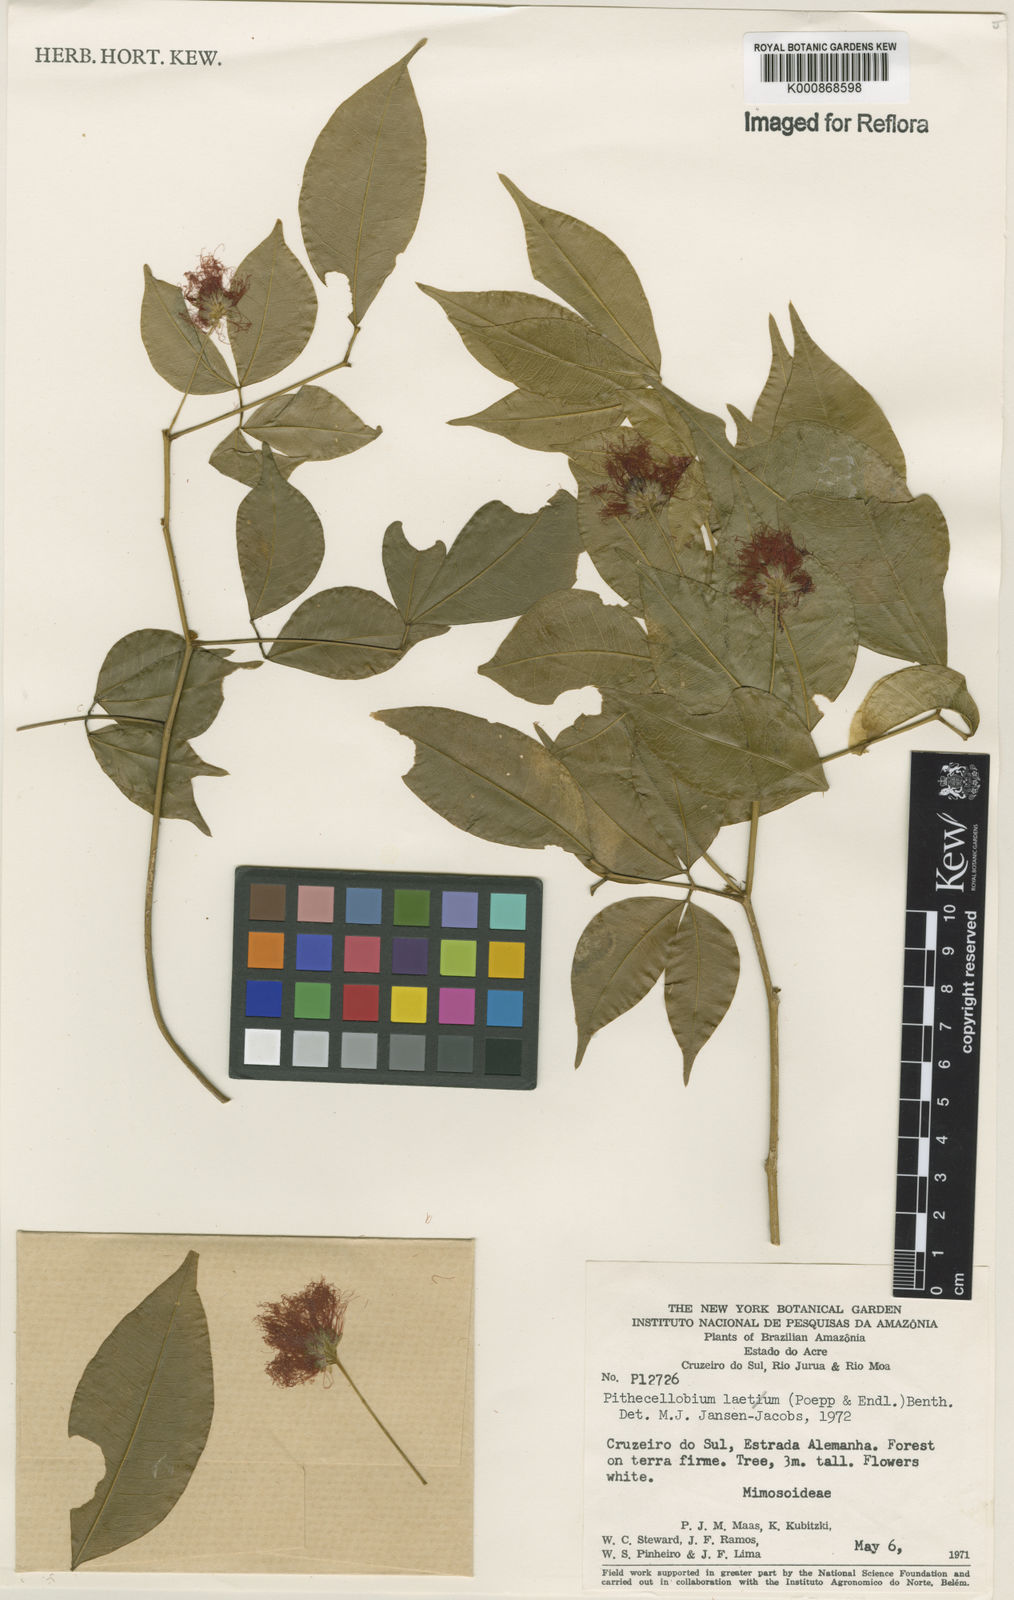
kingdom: Plantae
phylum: Tracheophyta
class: Magnoliopsida
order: Fabales
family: Fabaceae
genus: Jupunba
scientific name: Jupunba laeta
